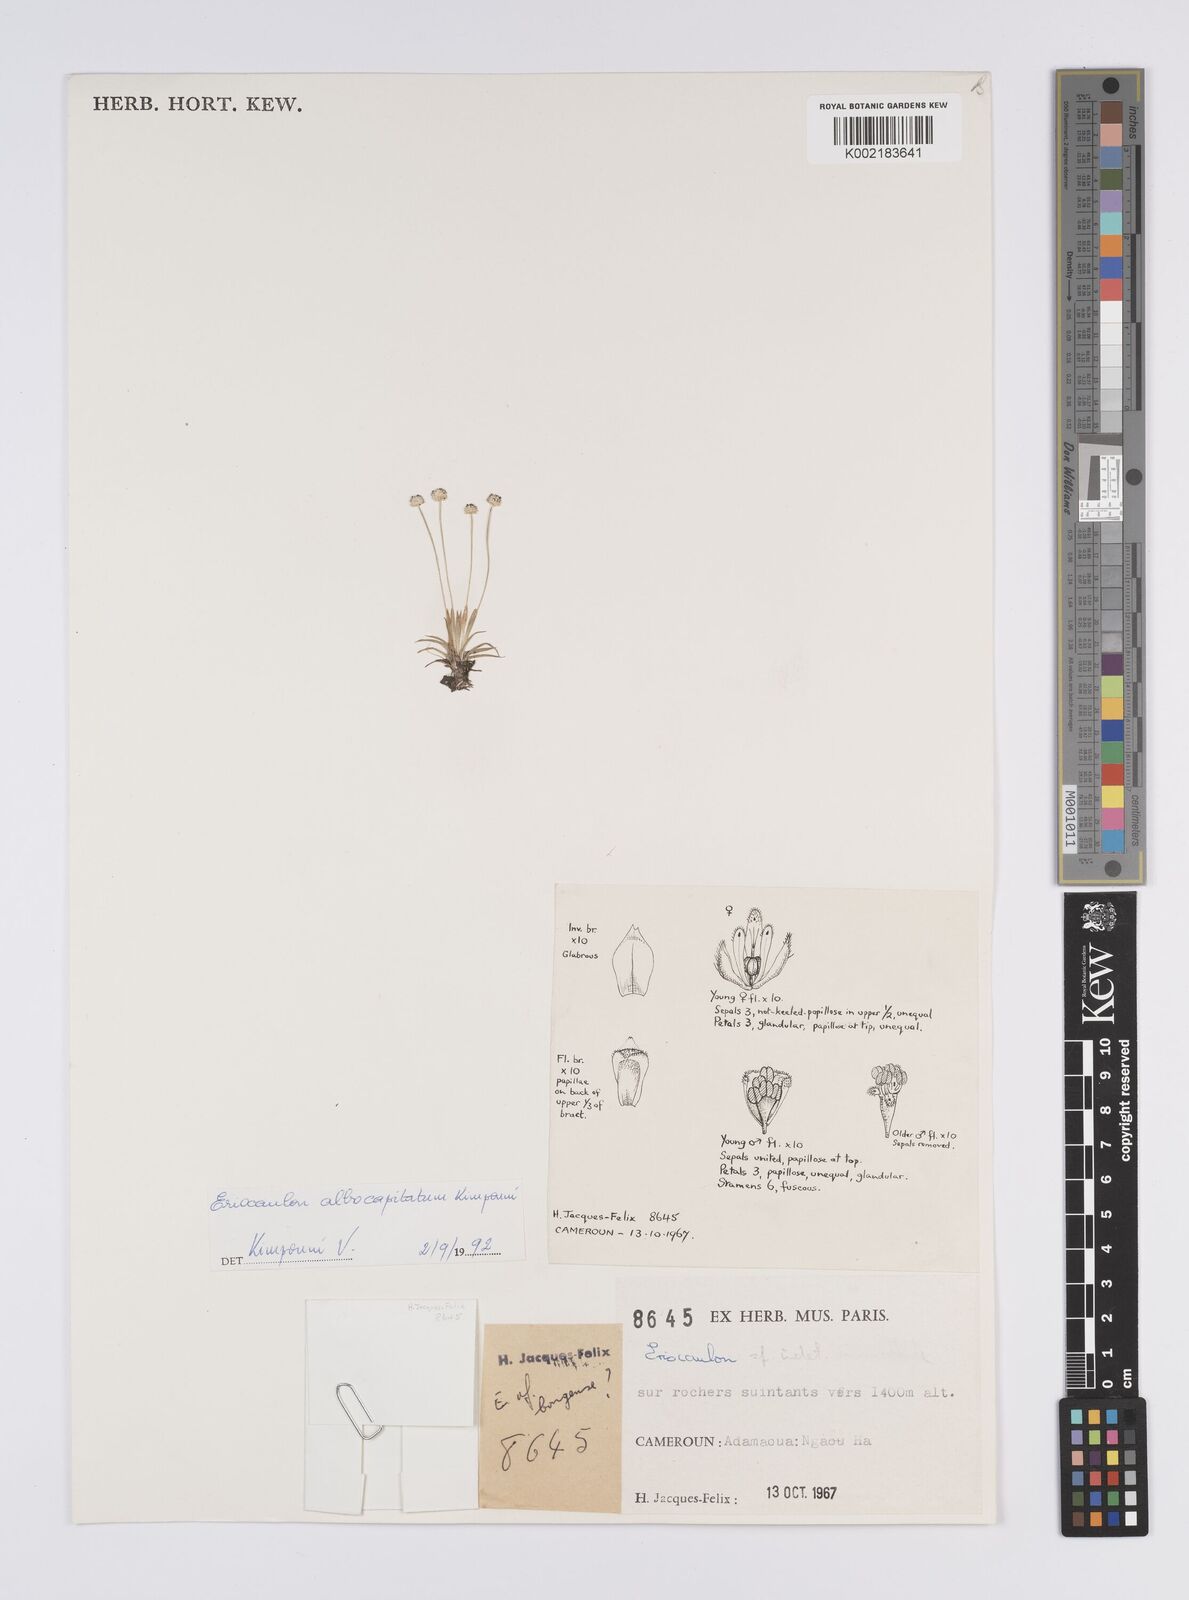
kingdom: Plantae
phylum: Tracheophyta
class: Liliopsida
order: Poales
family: Eriocaulaceae
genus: Eriocaulon
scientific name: Eriocaulon albocapitatum
